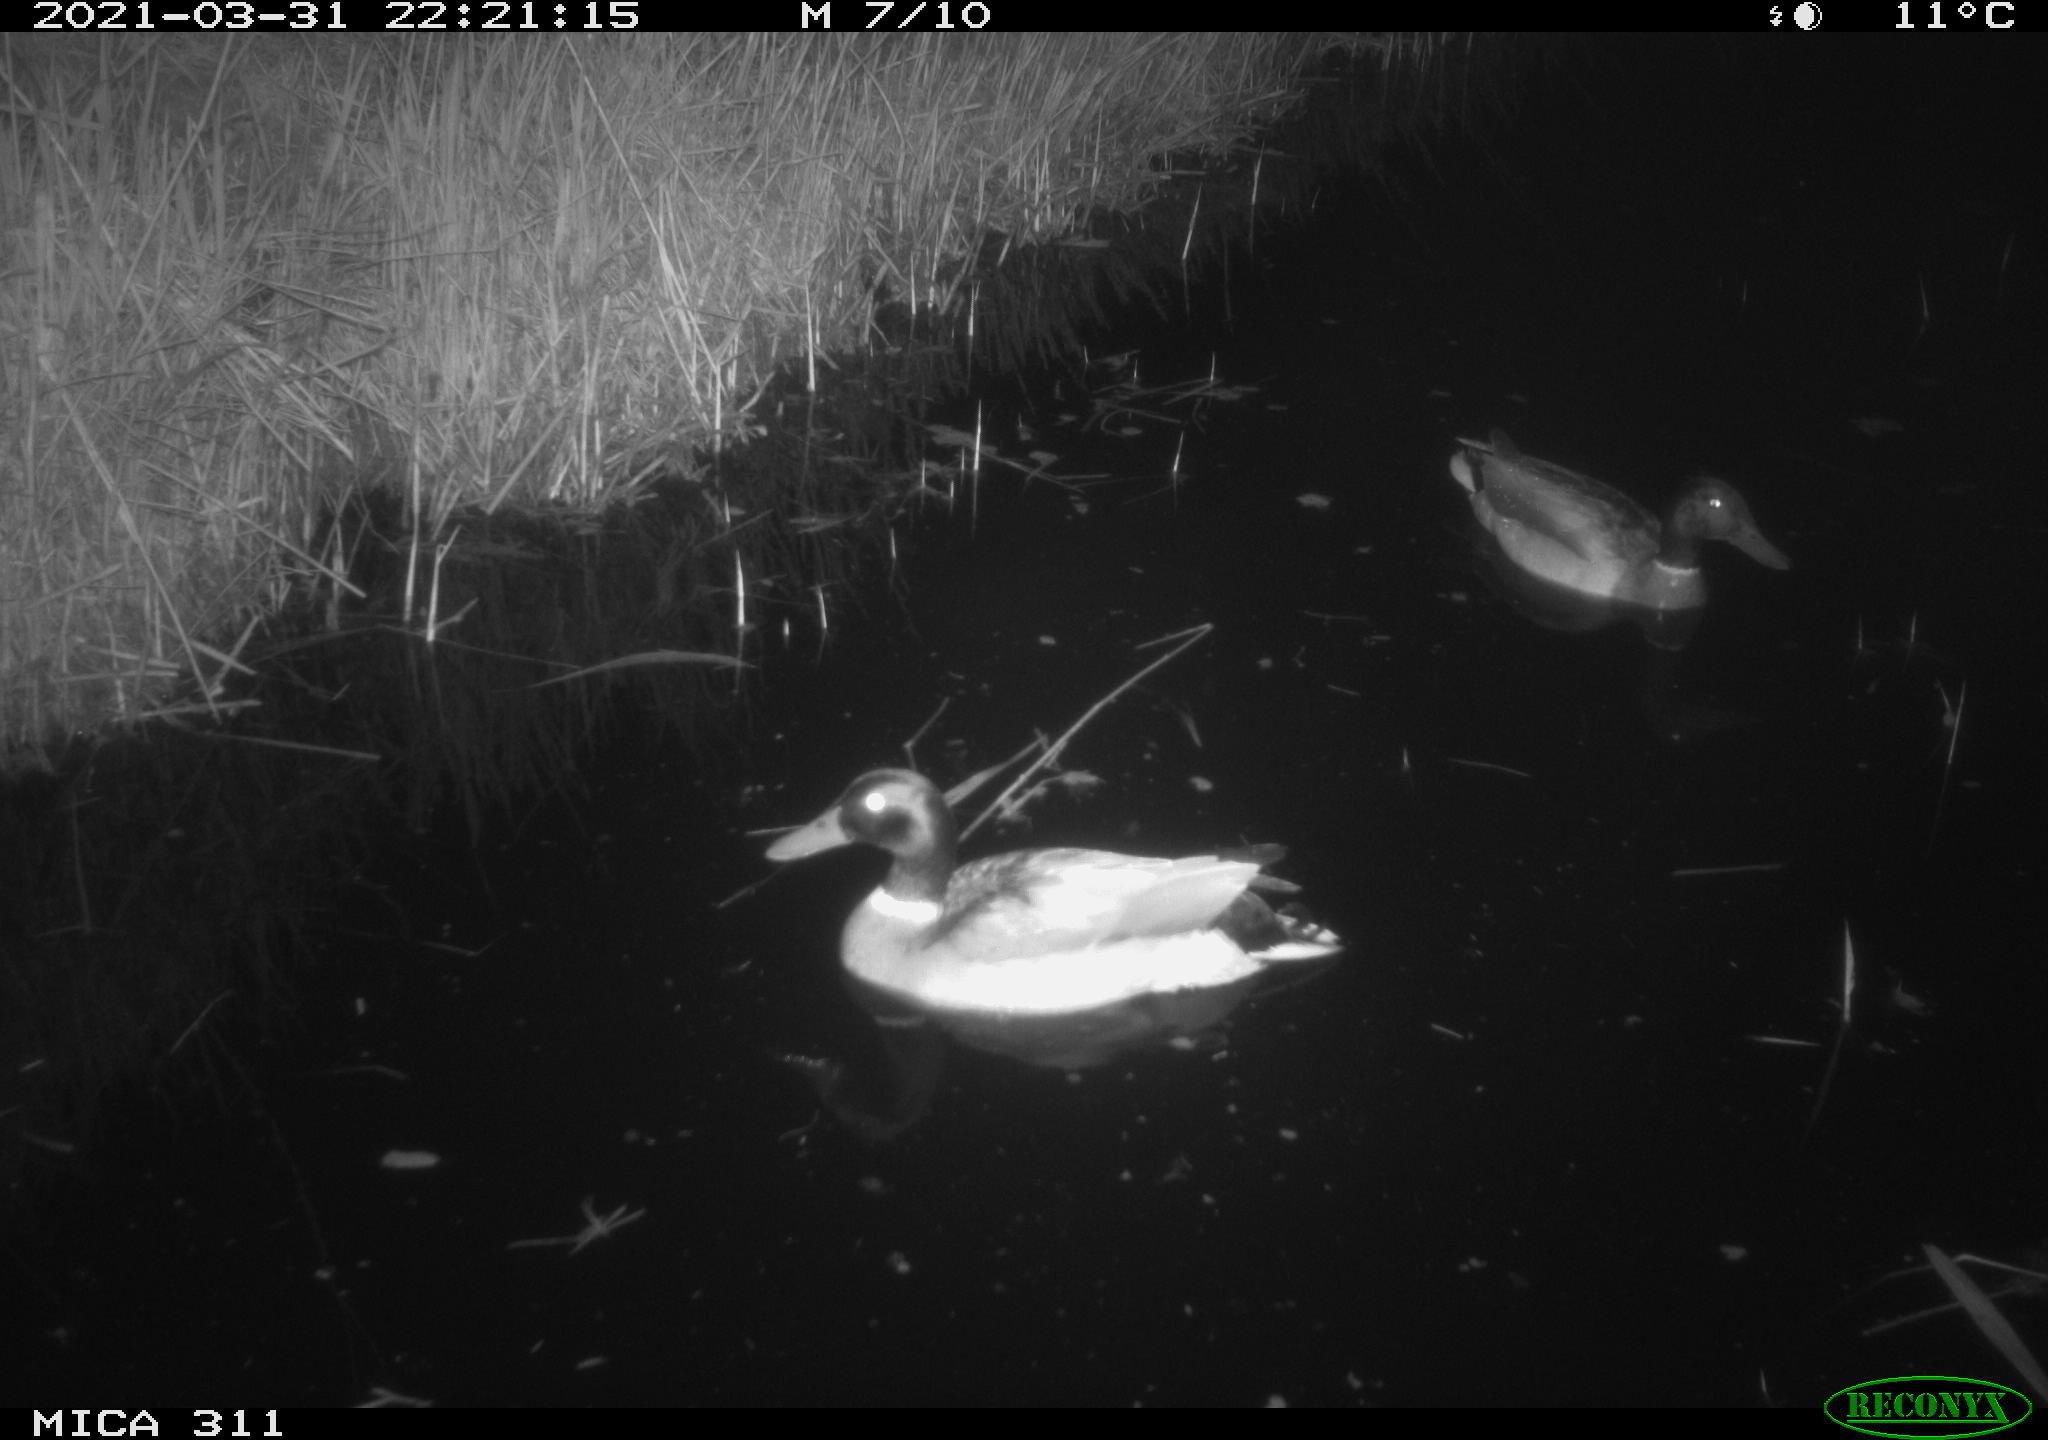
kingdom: Animalia
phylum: Chordata
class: Aves
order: Anseriformes
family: Anatidae
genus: Anas
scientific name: Anas
